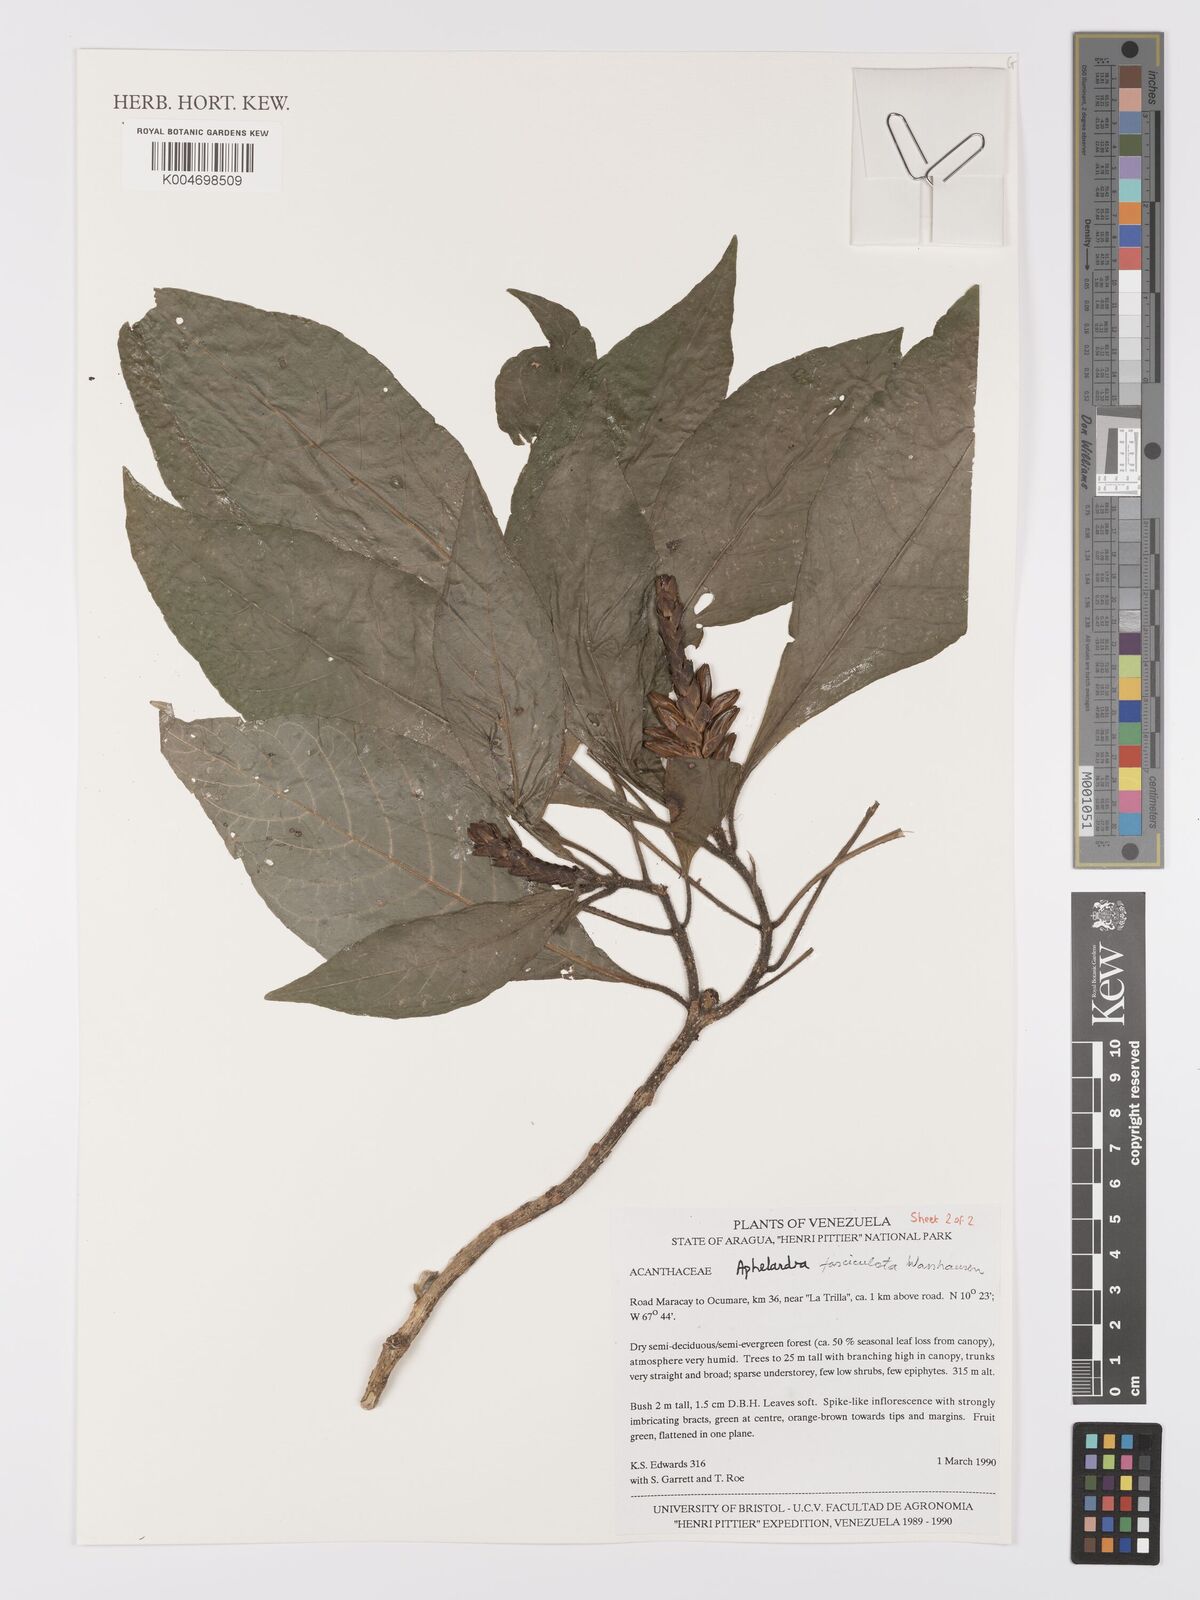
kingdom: Plantae
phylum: Tracheophyta
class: Magnoliopsida
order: Lamiales
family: Acanthaceae
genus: Aphelandra
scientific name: Aphelandra fasciculata
